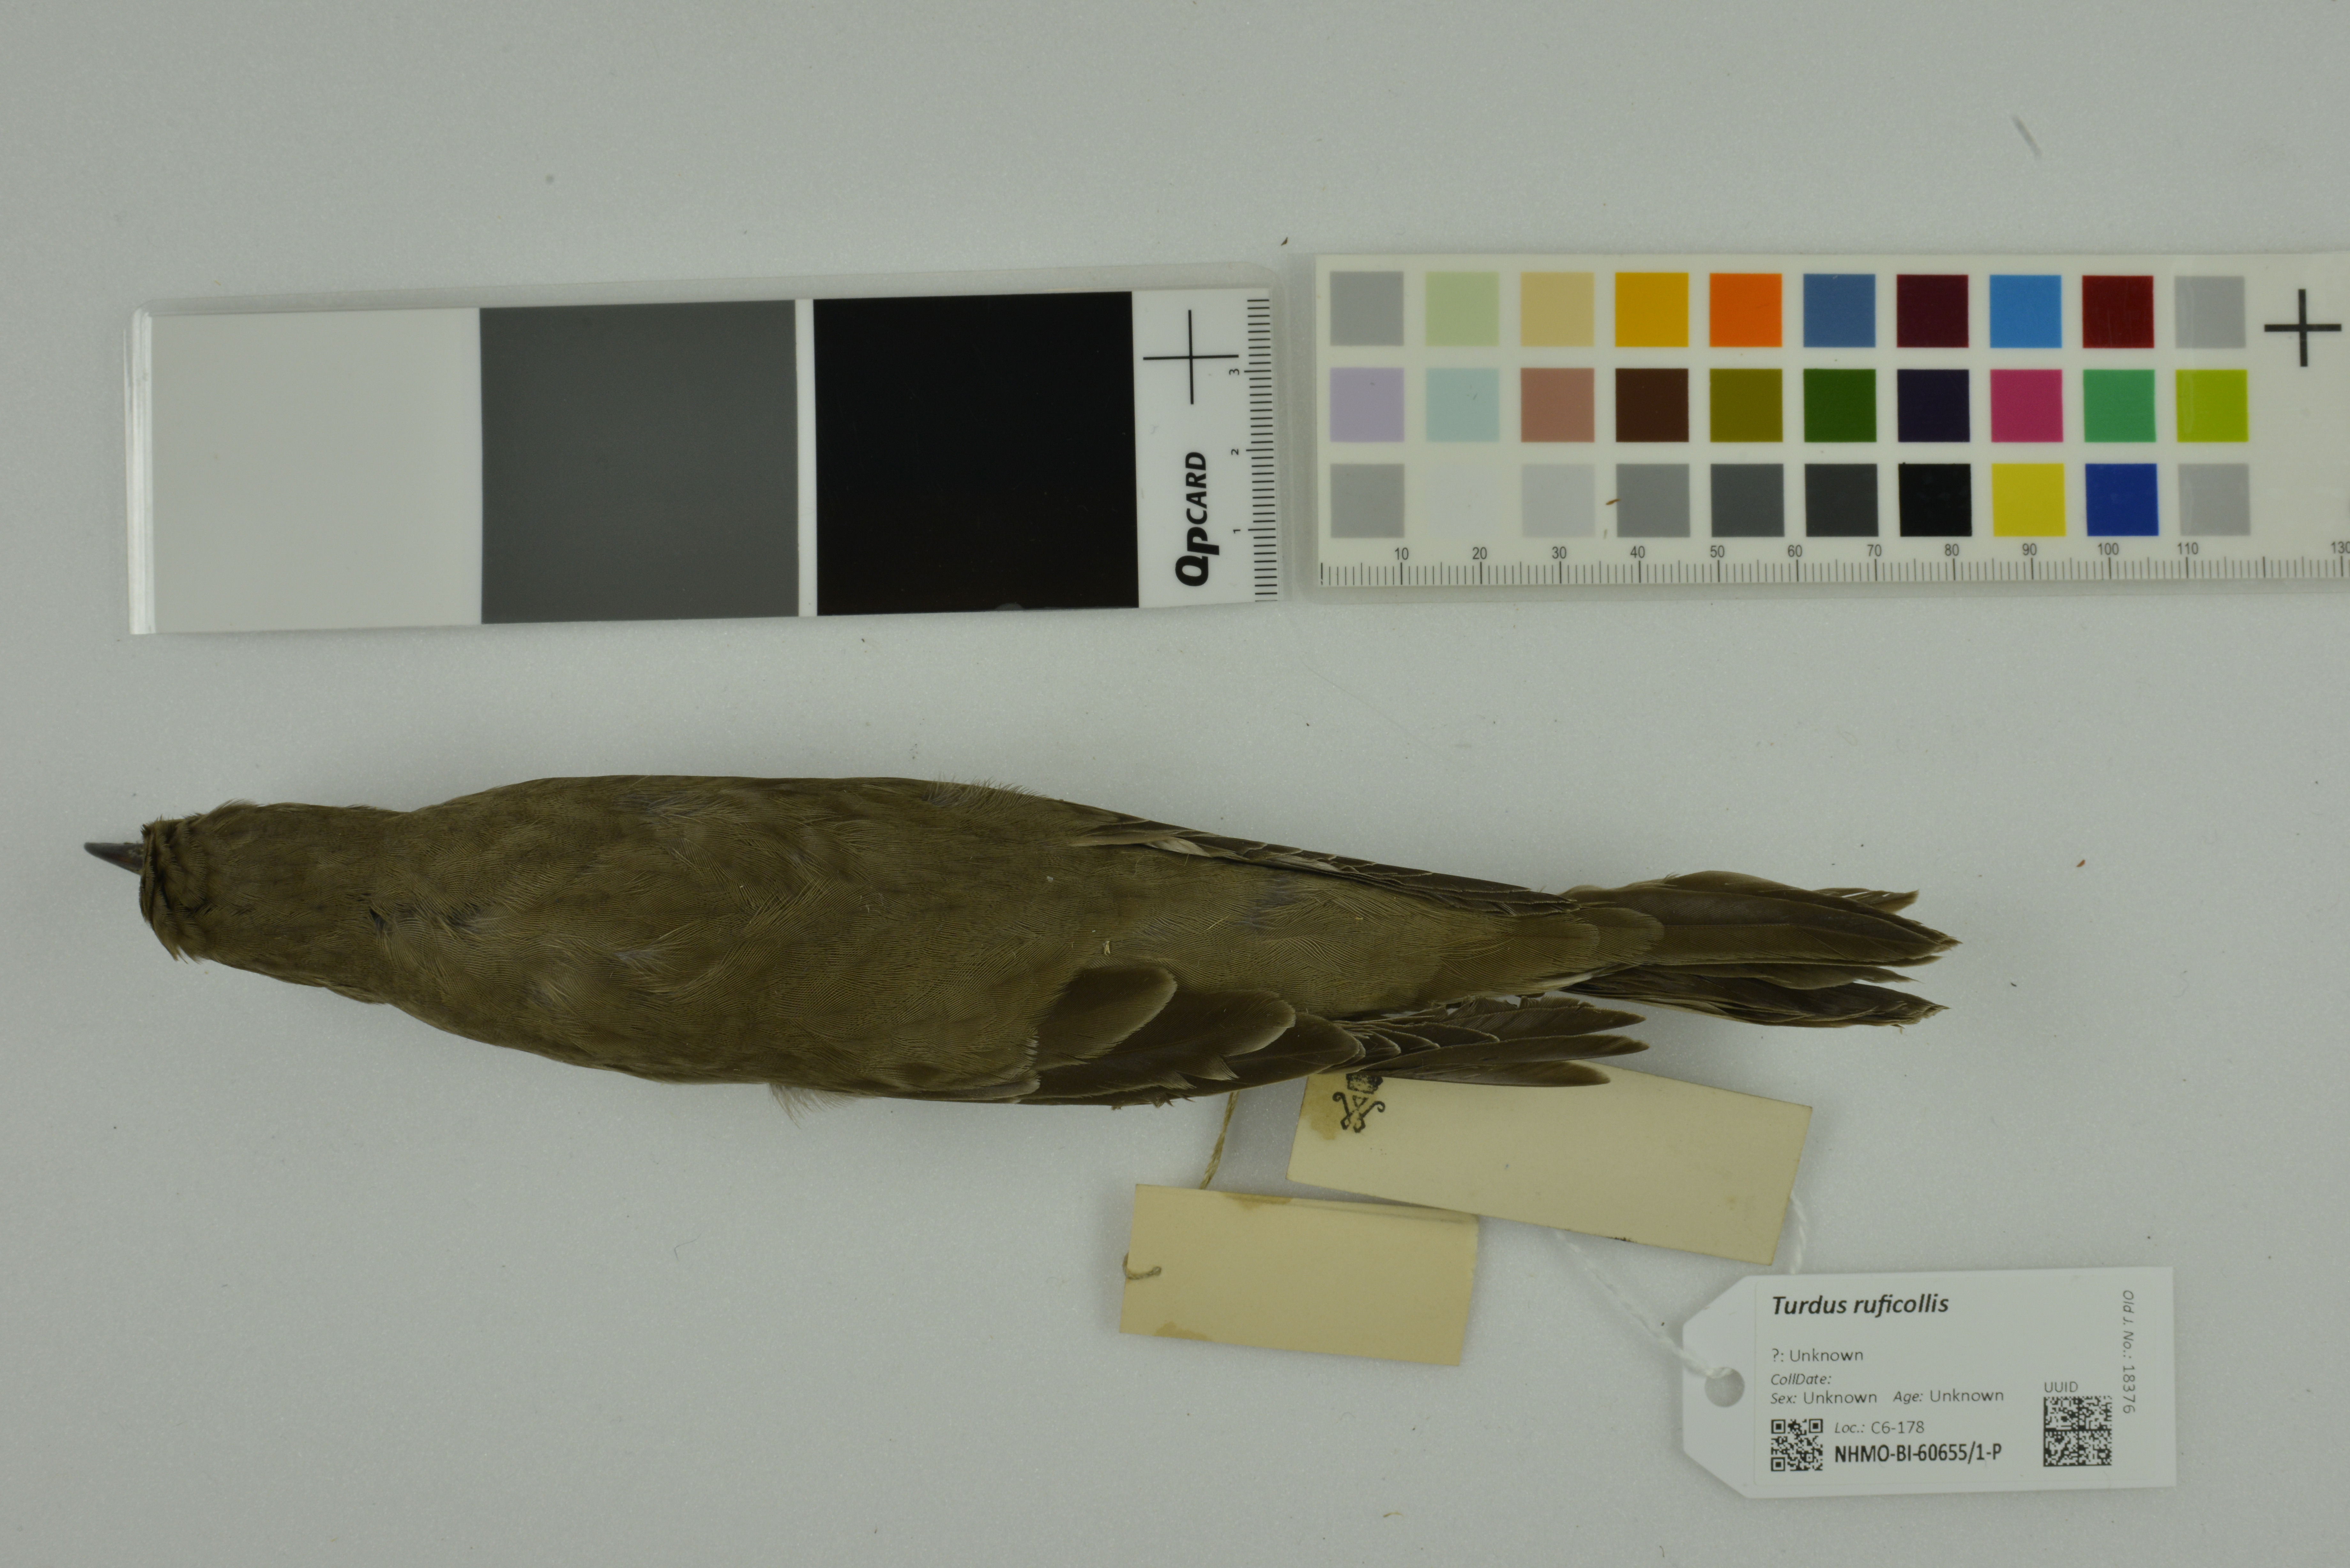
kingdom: Animalia
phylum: Chordata
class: Aves
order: Passeriformes
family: Turdidae
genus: Turdus
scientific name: Turdus ruficollis
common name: Red-throated thrush
